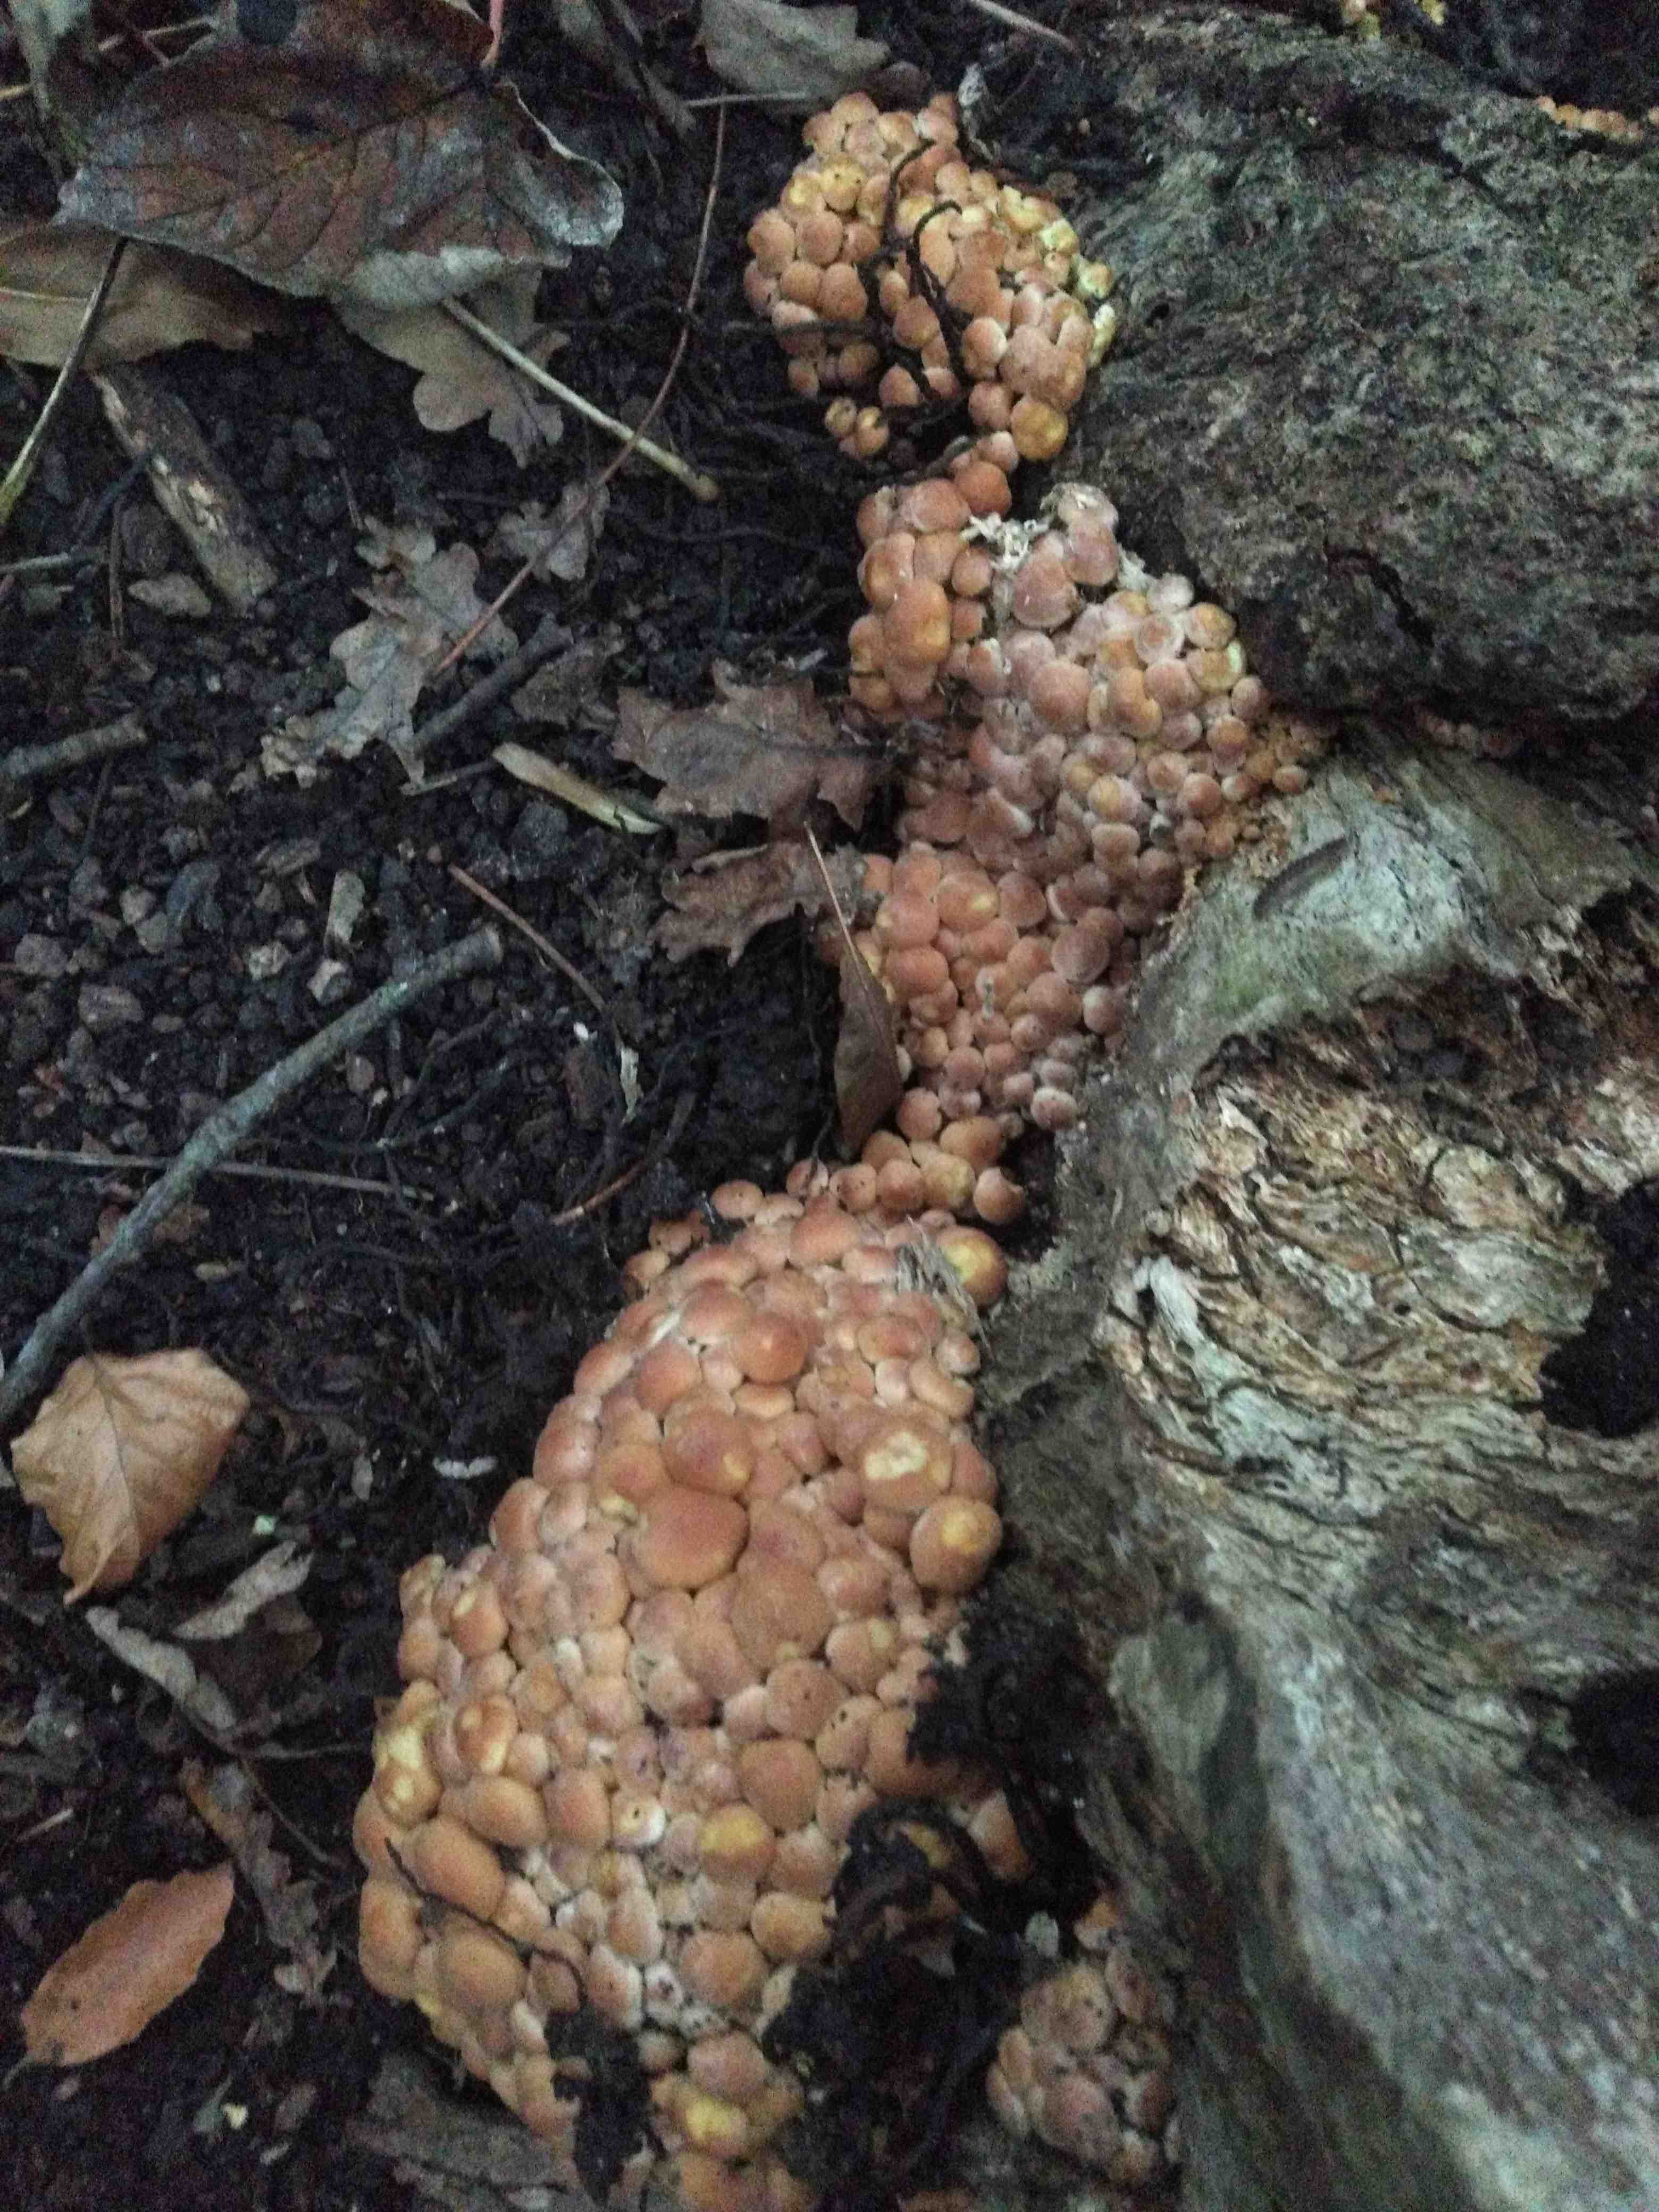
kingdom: Fungi
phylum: Basidiomycota
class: Agaricomycetes
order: Agaricales
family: Strophariaceae
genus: Hypholoma
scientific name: Hypholoma fasciculare
